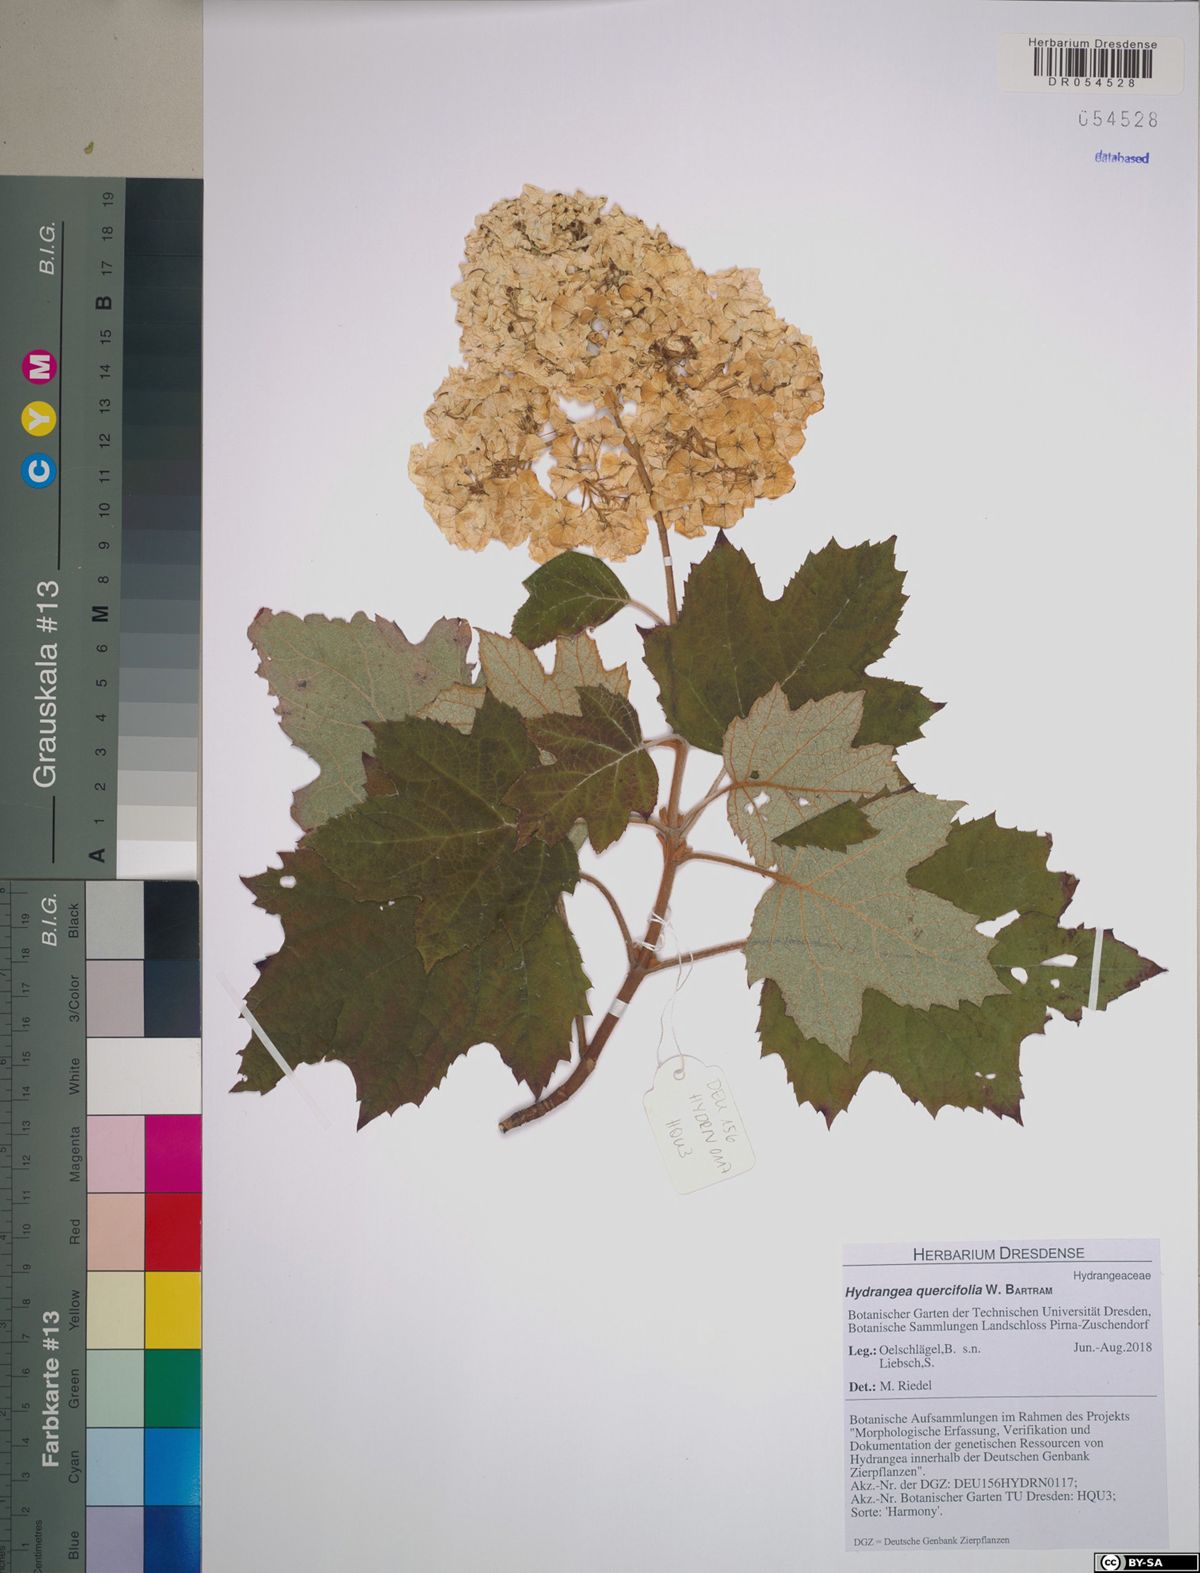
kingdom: Plantae
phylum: Tracheophyta
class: Magnoliopsida
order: Cornales
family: Hydrangeaceae
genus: Hydrangea
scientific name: Hydrangea quercifolia
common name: Oak-leaf hydrangea
